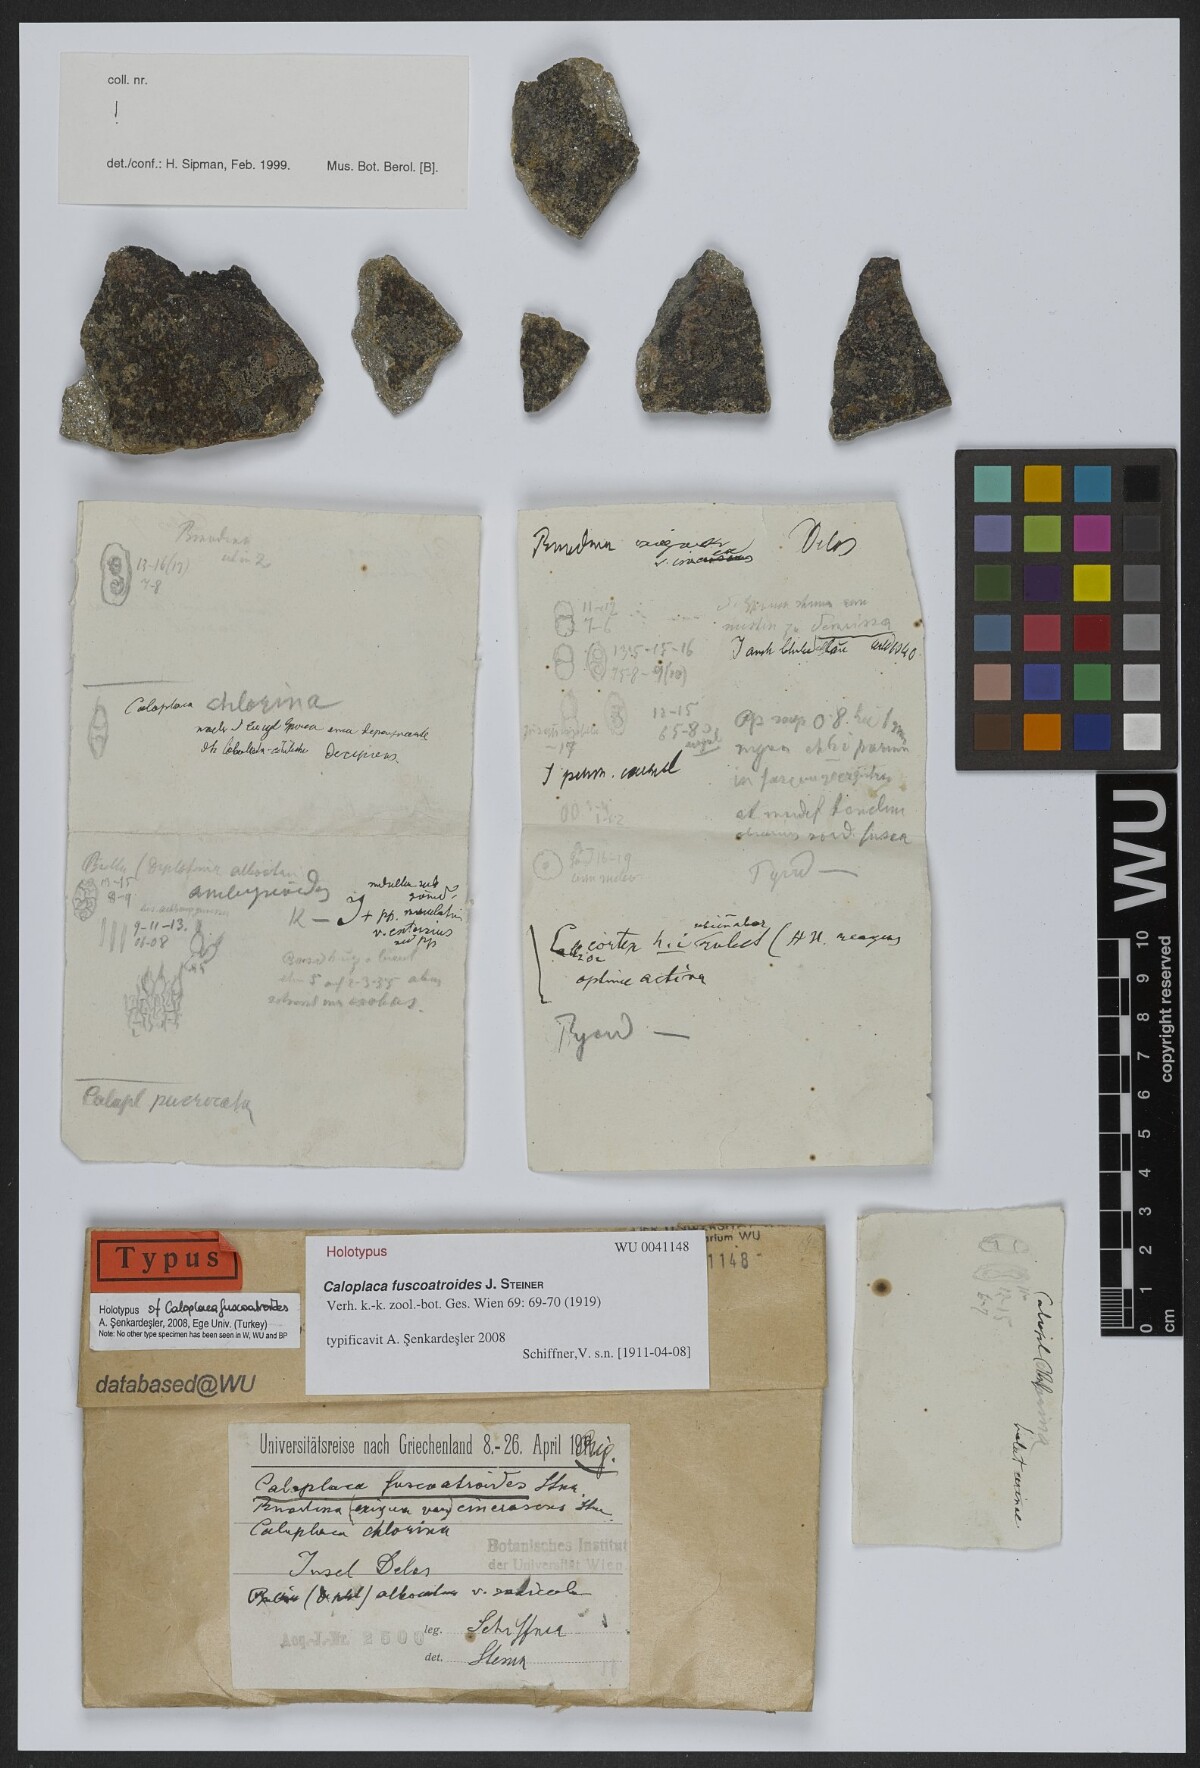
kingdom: Fungi
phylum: Ascomycota
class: Lecanoromycetes
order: Teloschistales
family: Teloschistaceae
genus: Kuettlingeria
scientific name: Kuettlingeria fuscoatroides
